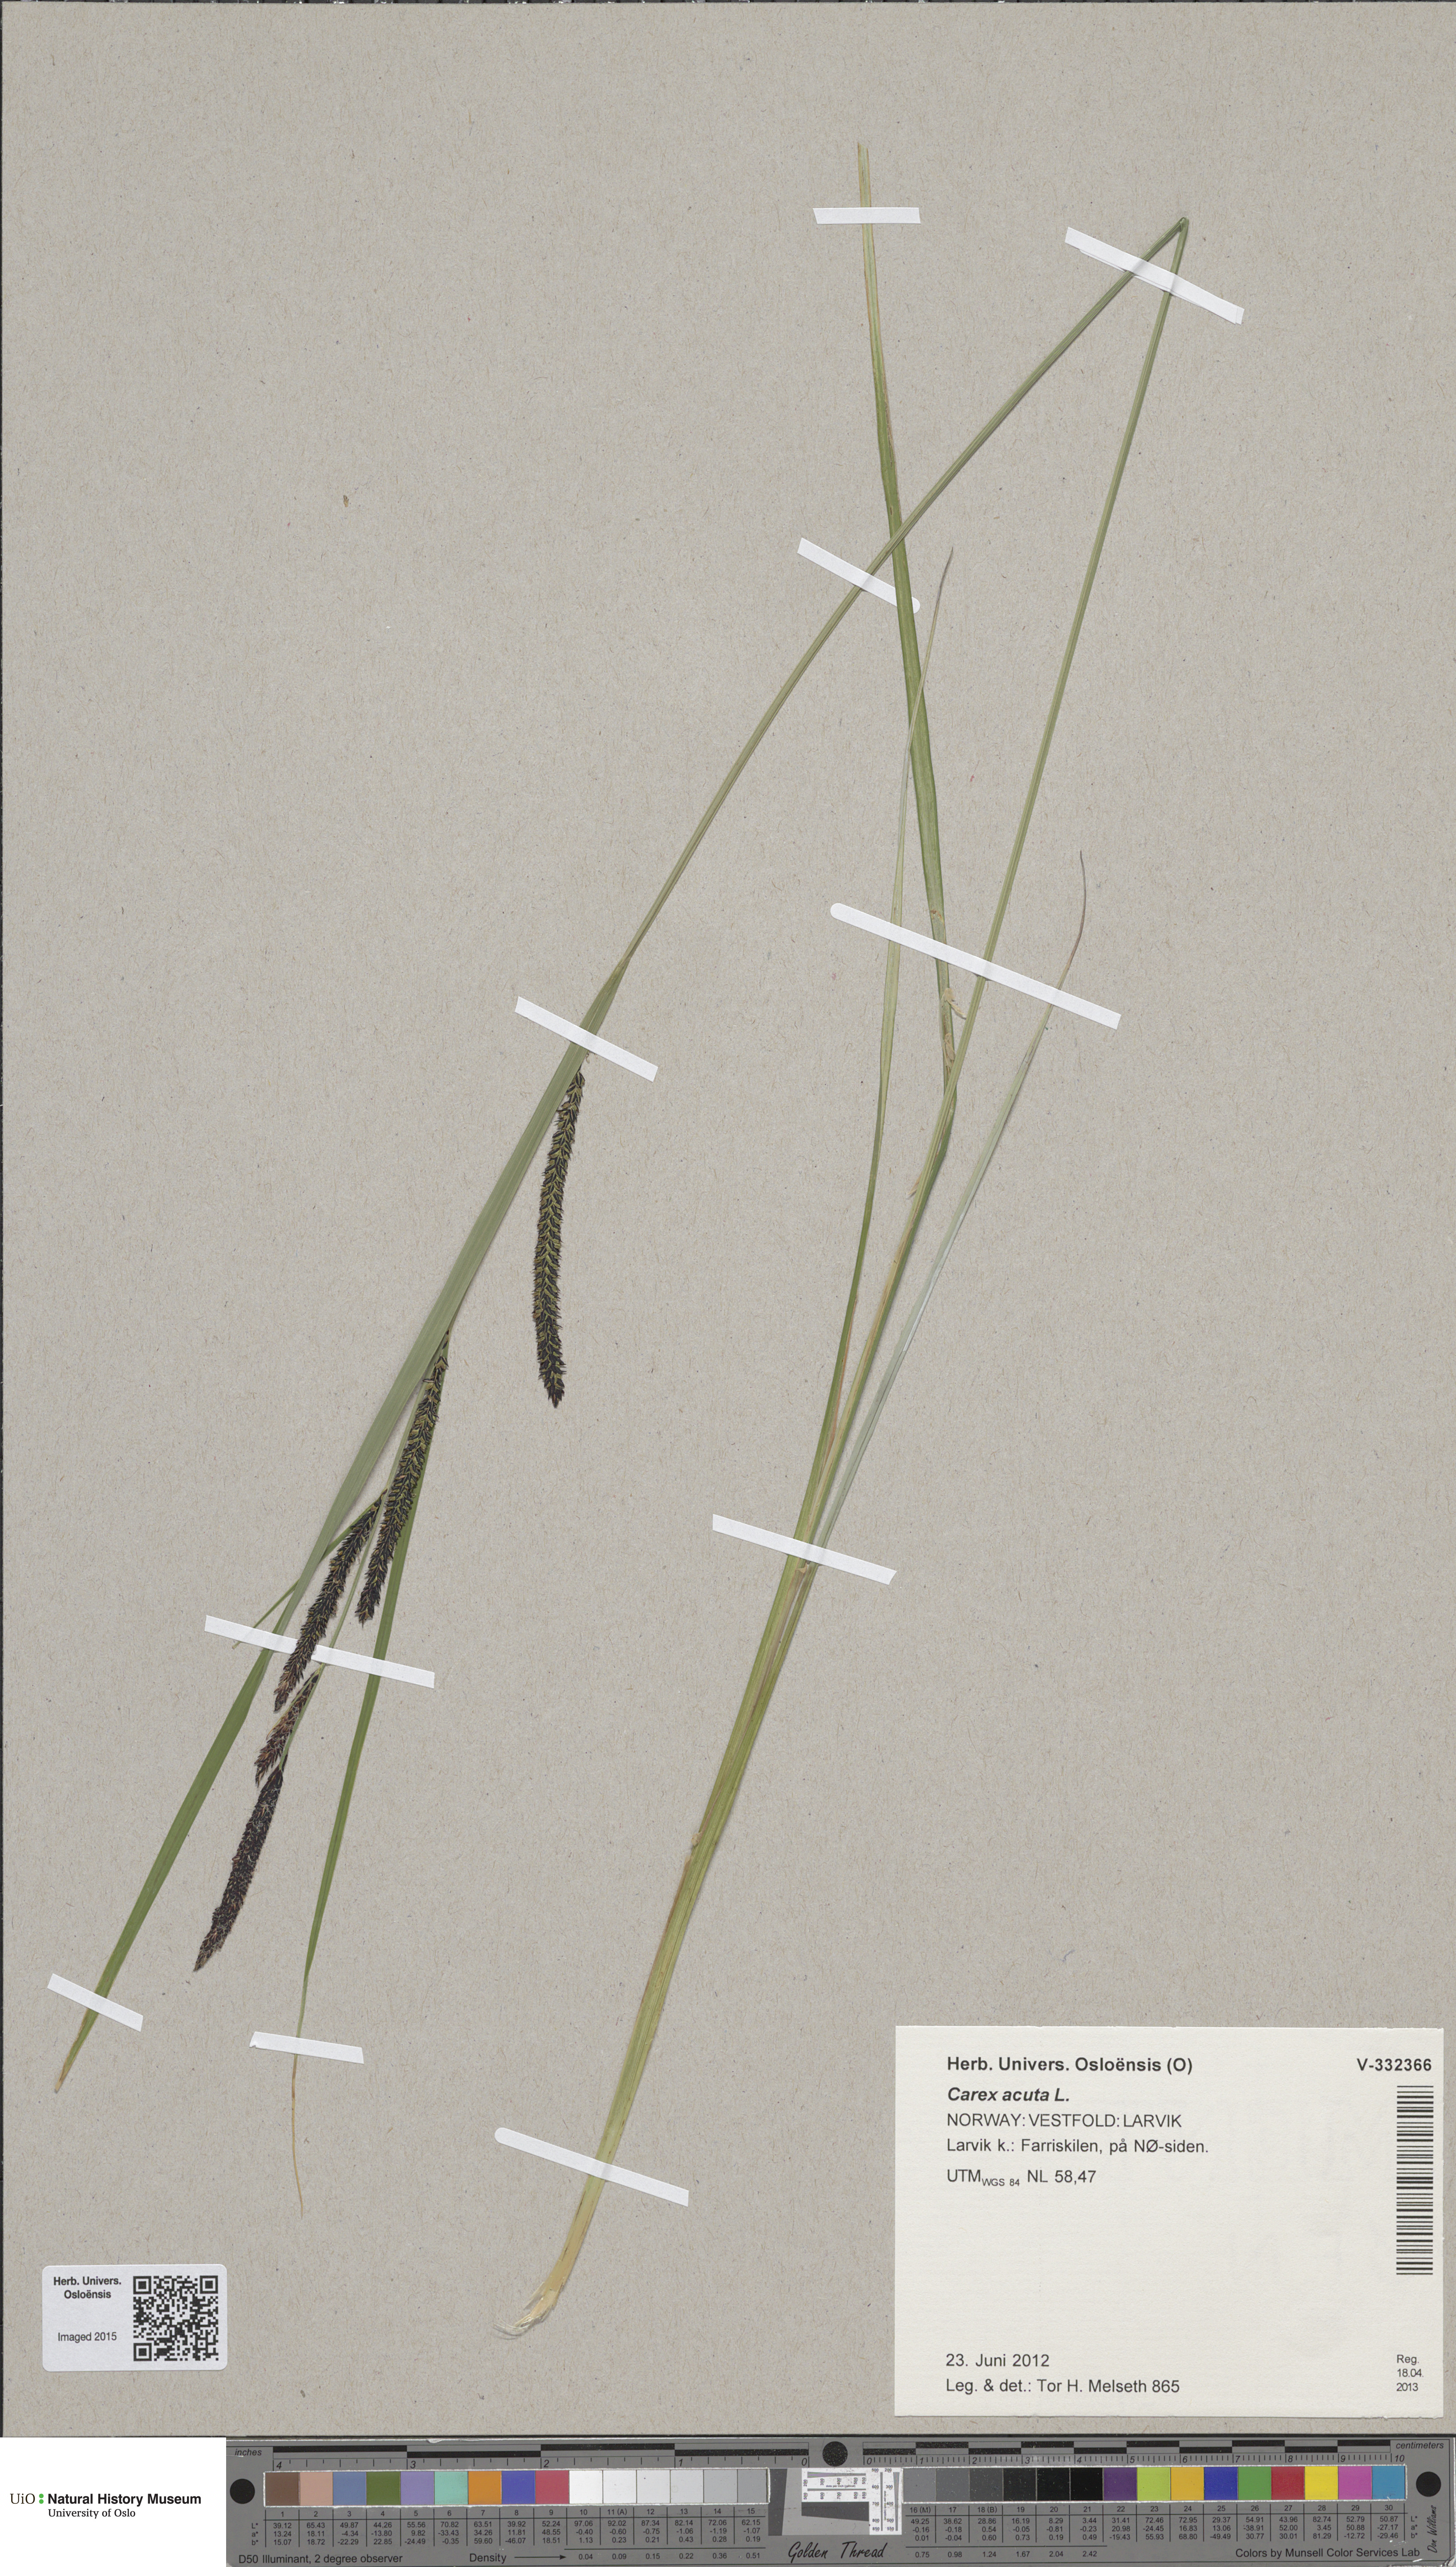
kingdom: Plantae
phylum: Tracheophyta
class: Liliopsida
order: Poales
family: Cyperaceae
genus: Carex
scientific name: Carex acuta
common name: Slender tufted-sedge
